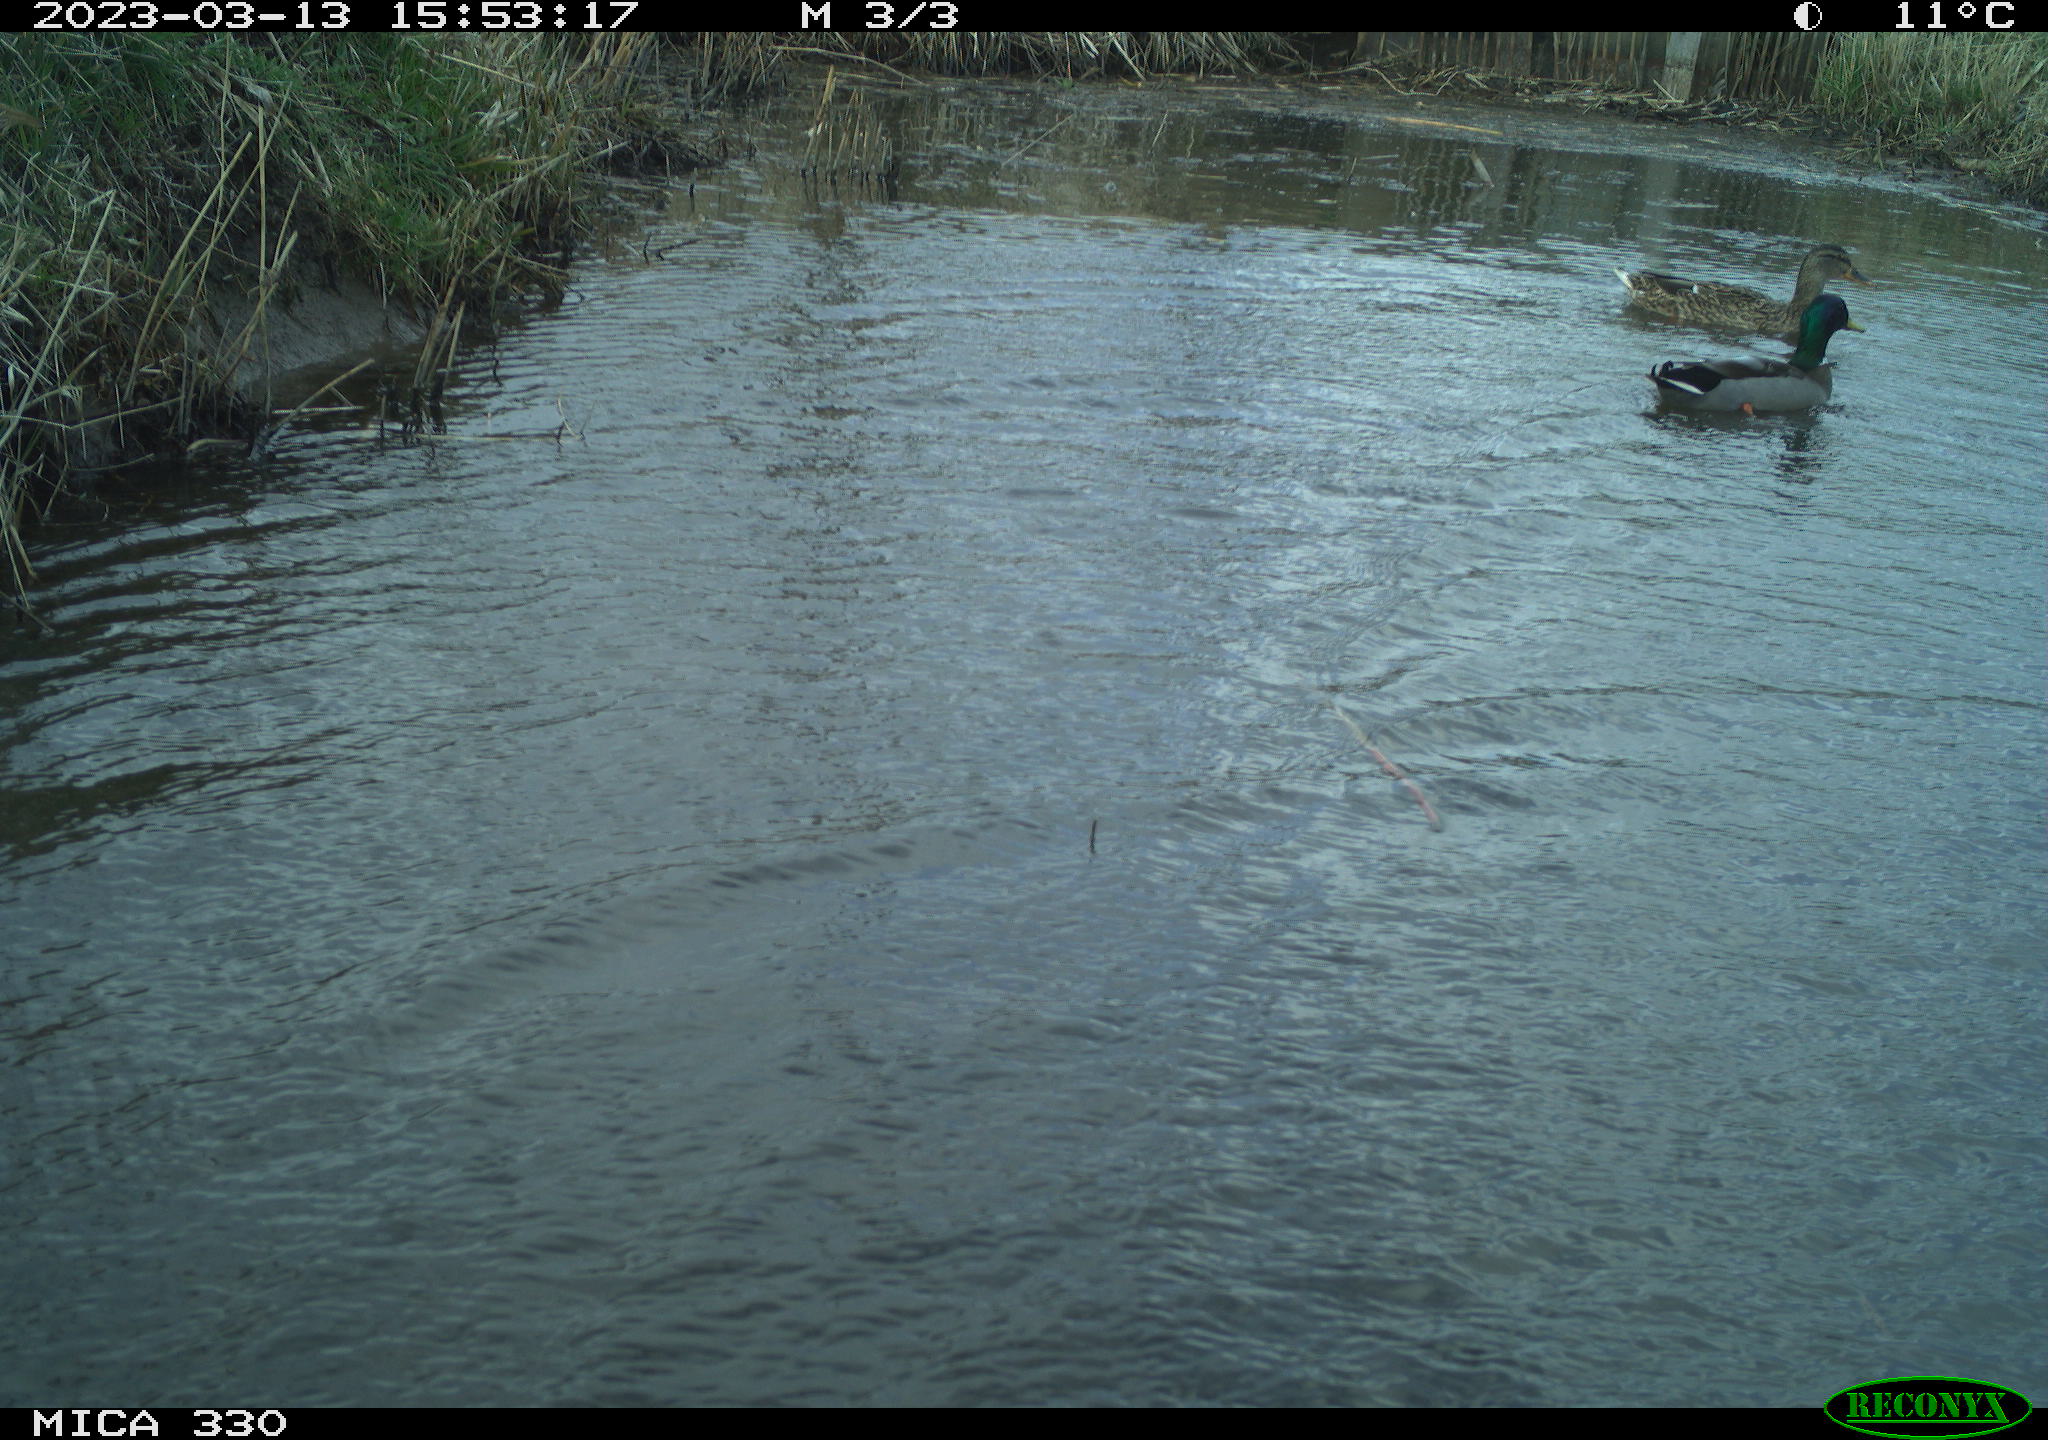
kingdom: Animalia
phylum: Chordata
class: Aves
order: Anseriformes
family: Anatidae
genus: Anas
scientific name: Anas
